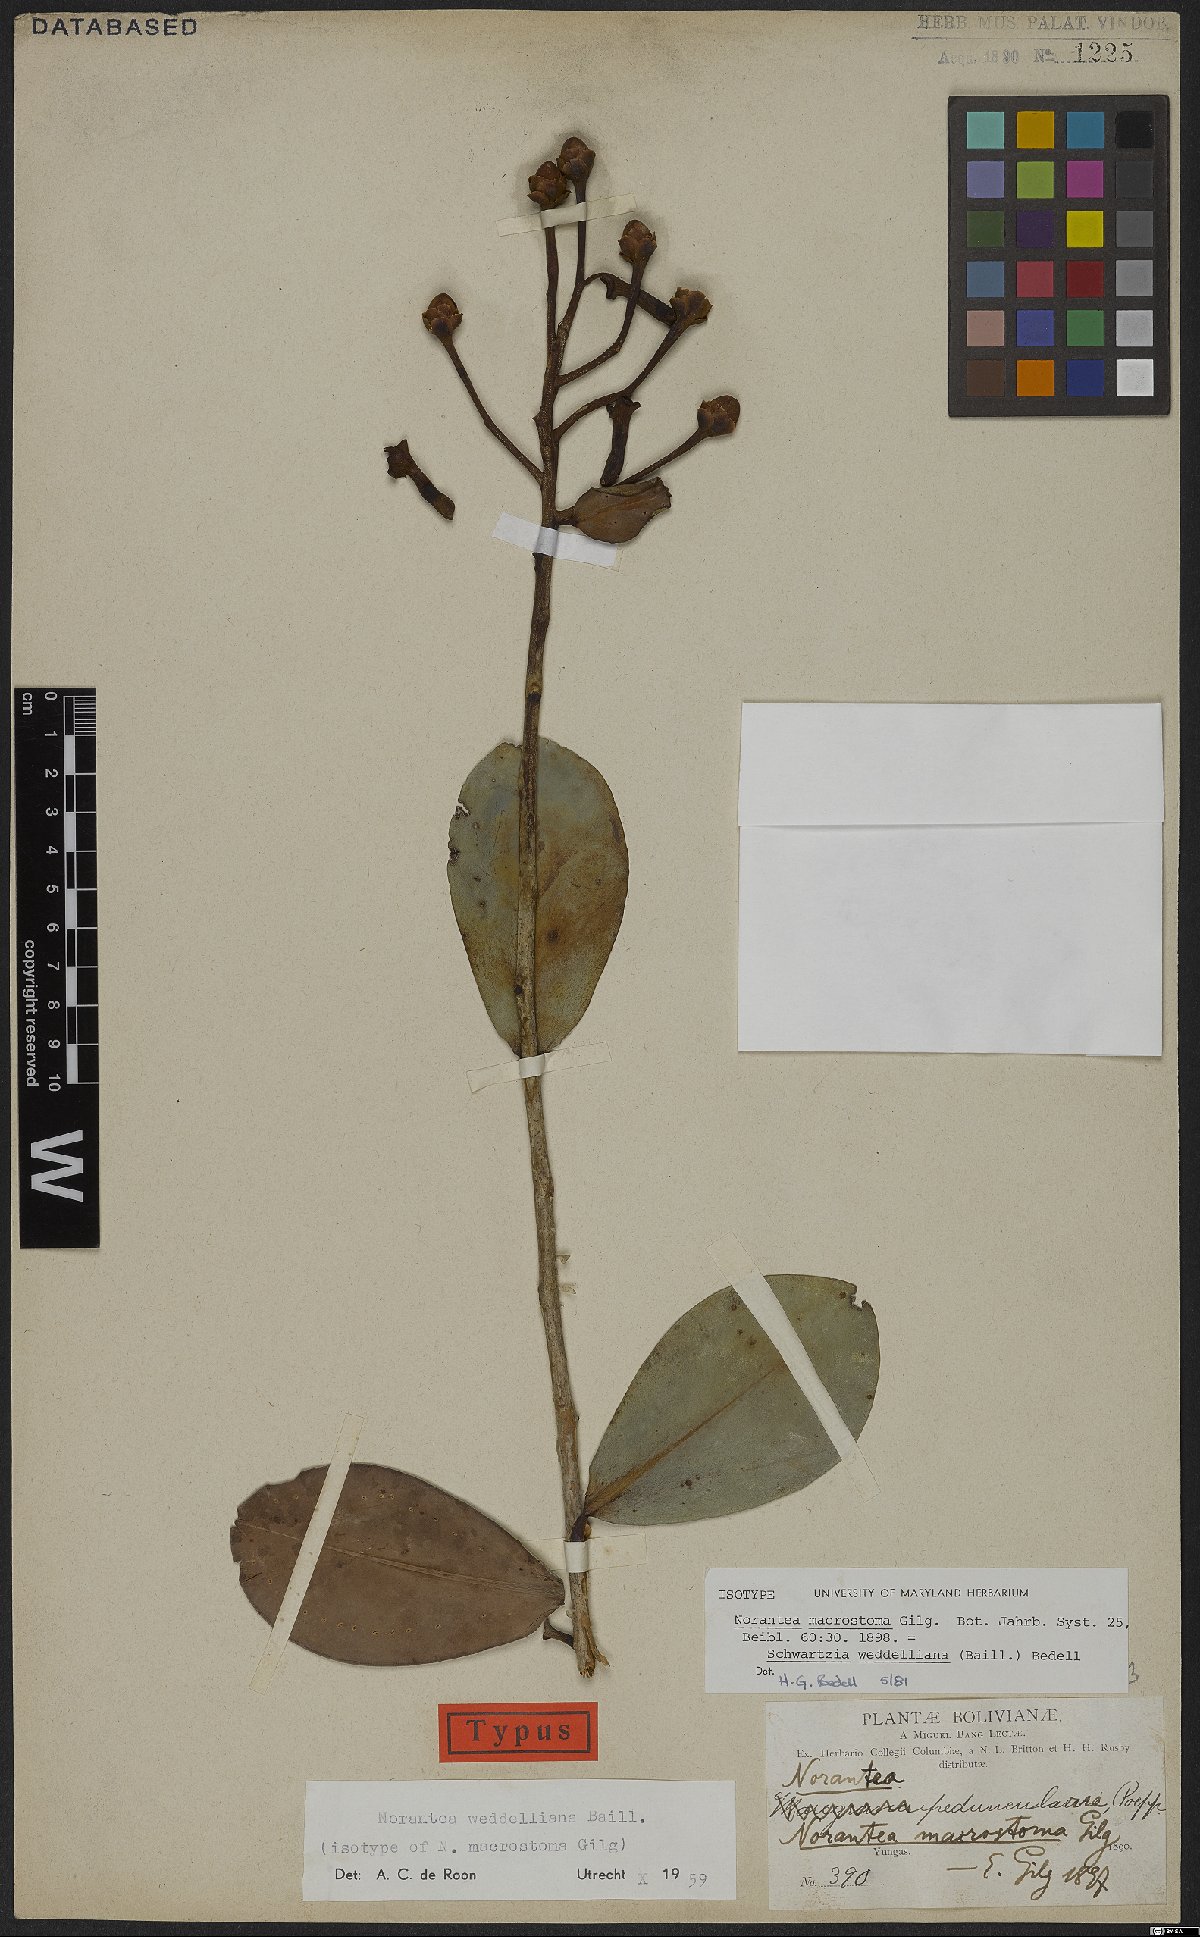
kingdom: Plantae
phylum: Tracheophyta
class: Magnoliopsida
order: Ericales
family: Marcgraviaceae
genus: Schwartzia
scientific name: Schwartzia weddelliana
